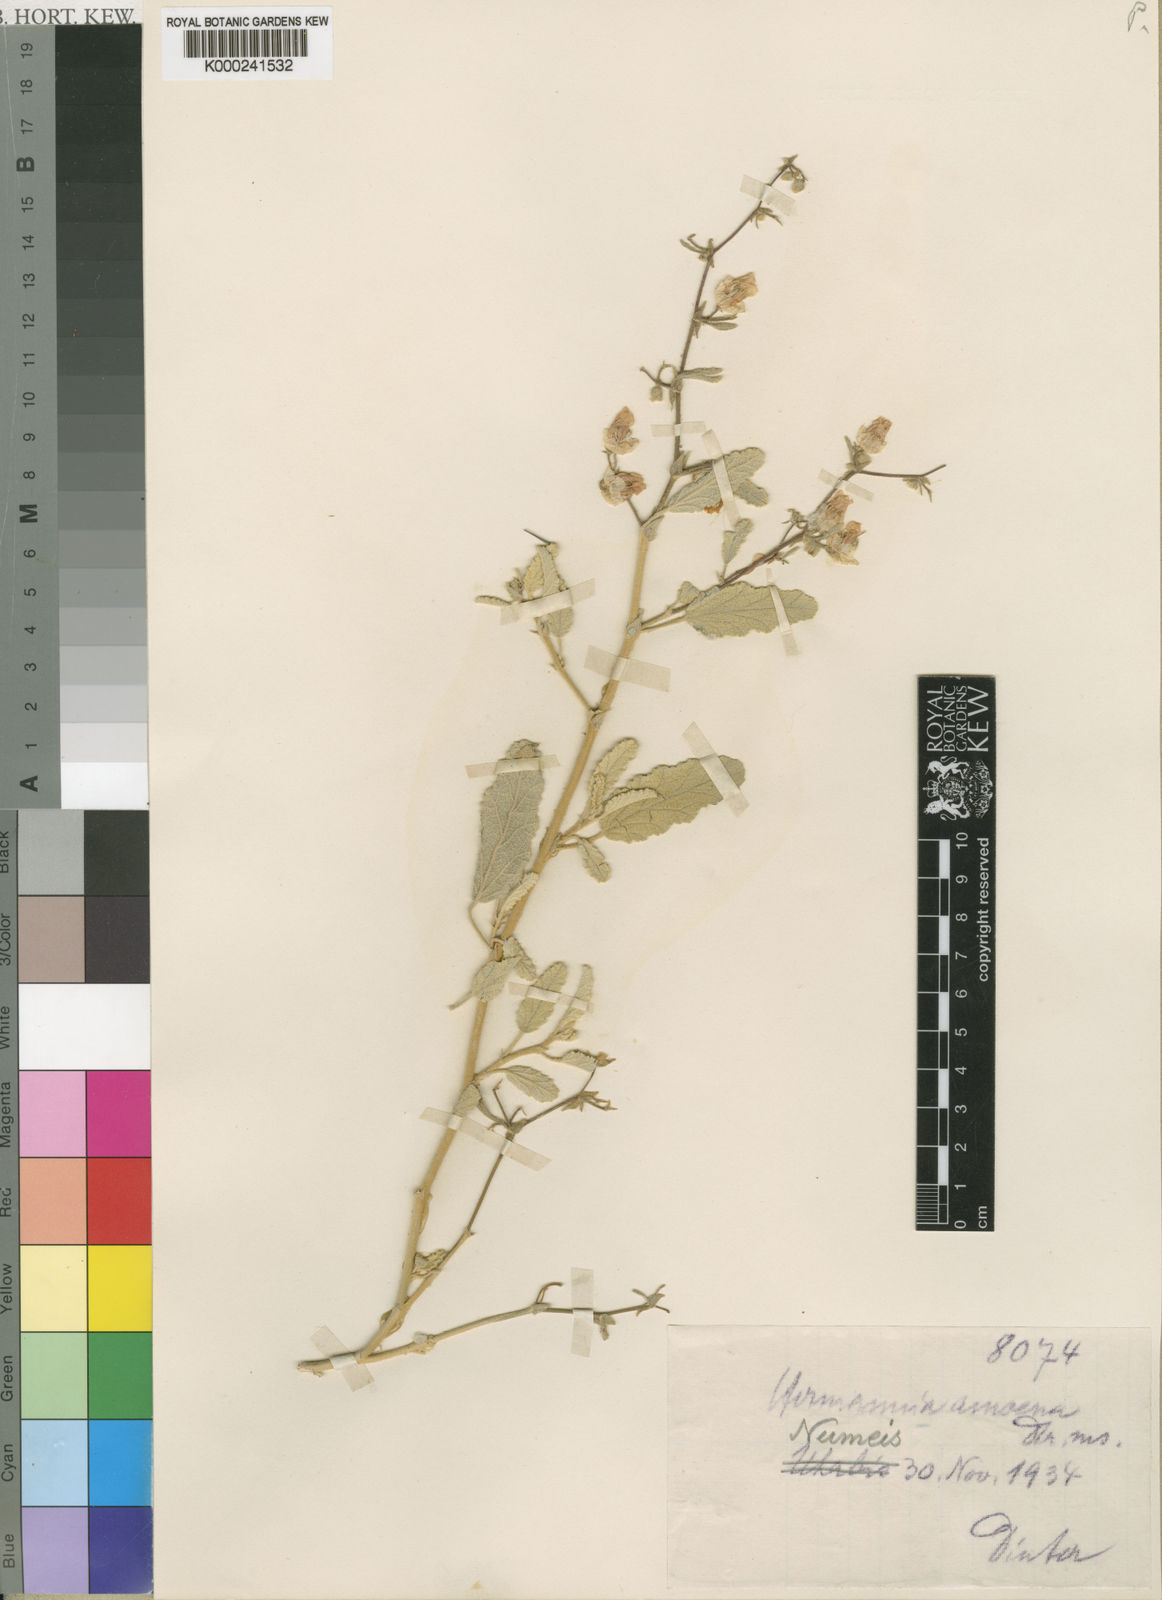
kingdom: Plantae
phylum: Tracheophyta
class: Magnoliopsida
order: Malvales
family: Malvaceae
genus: Hermannia
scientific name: Hermannia amoena
